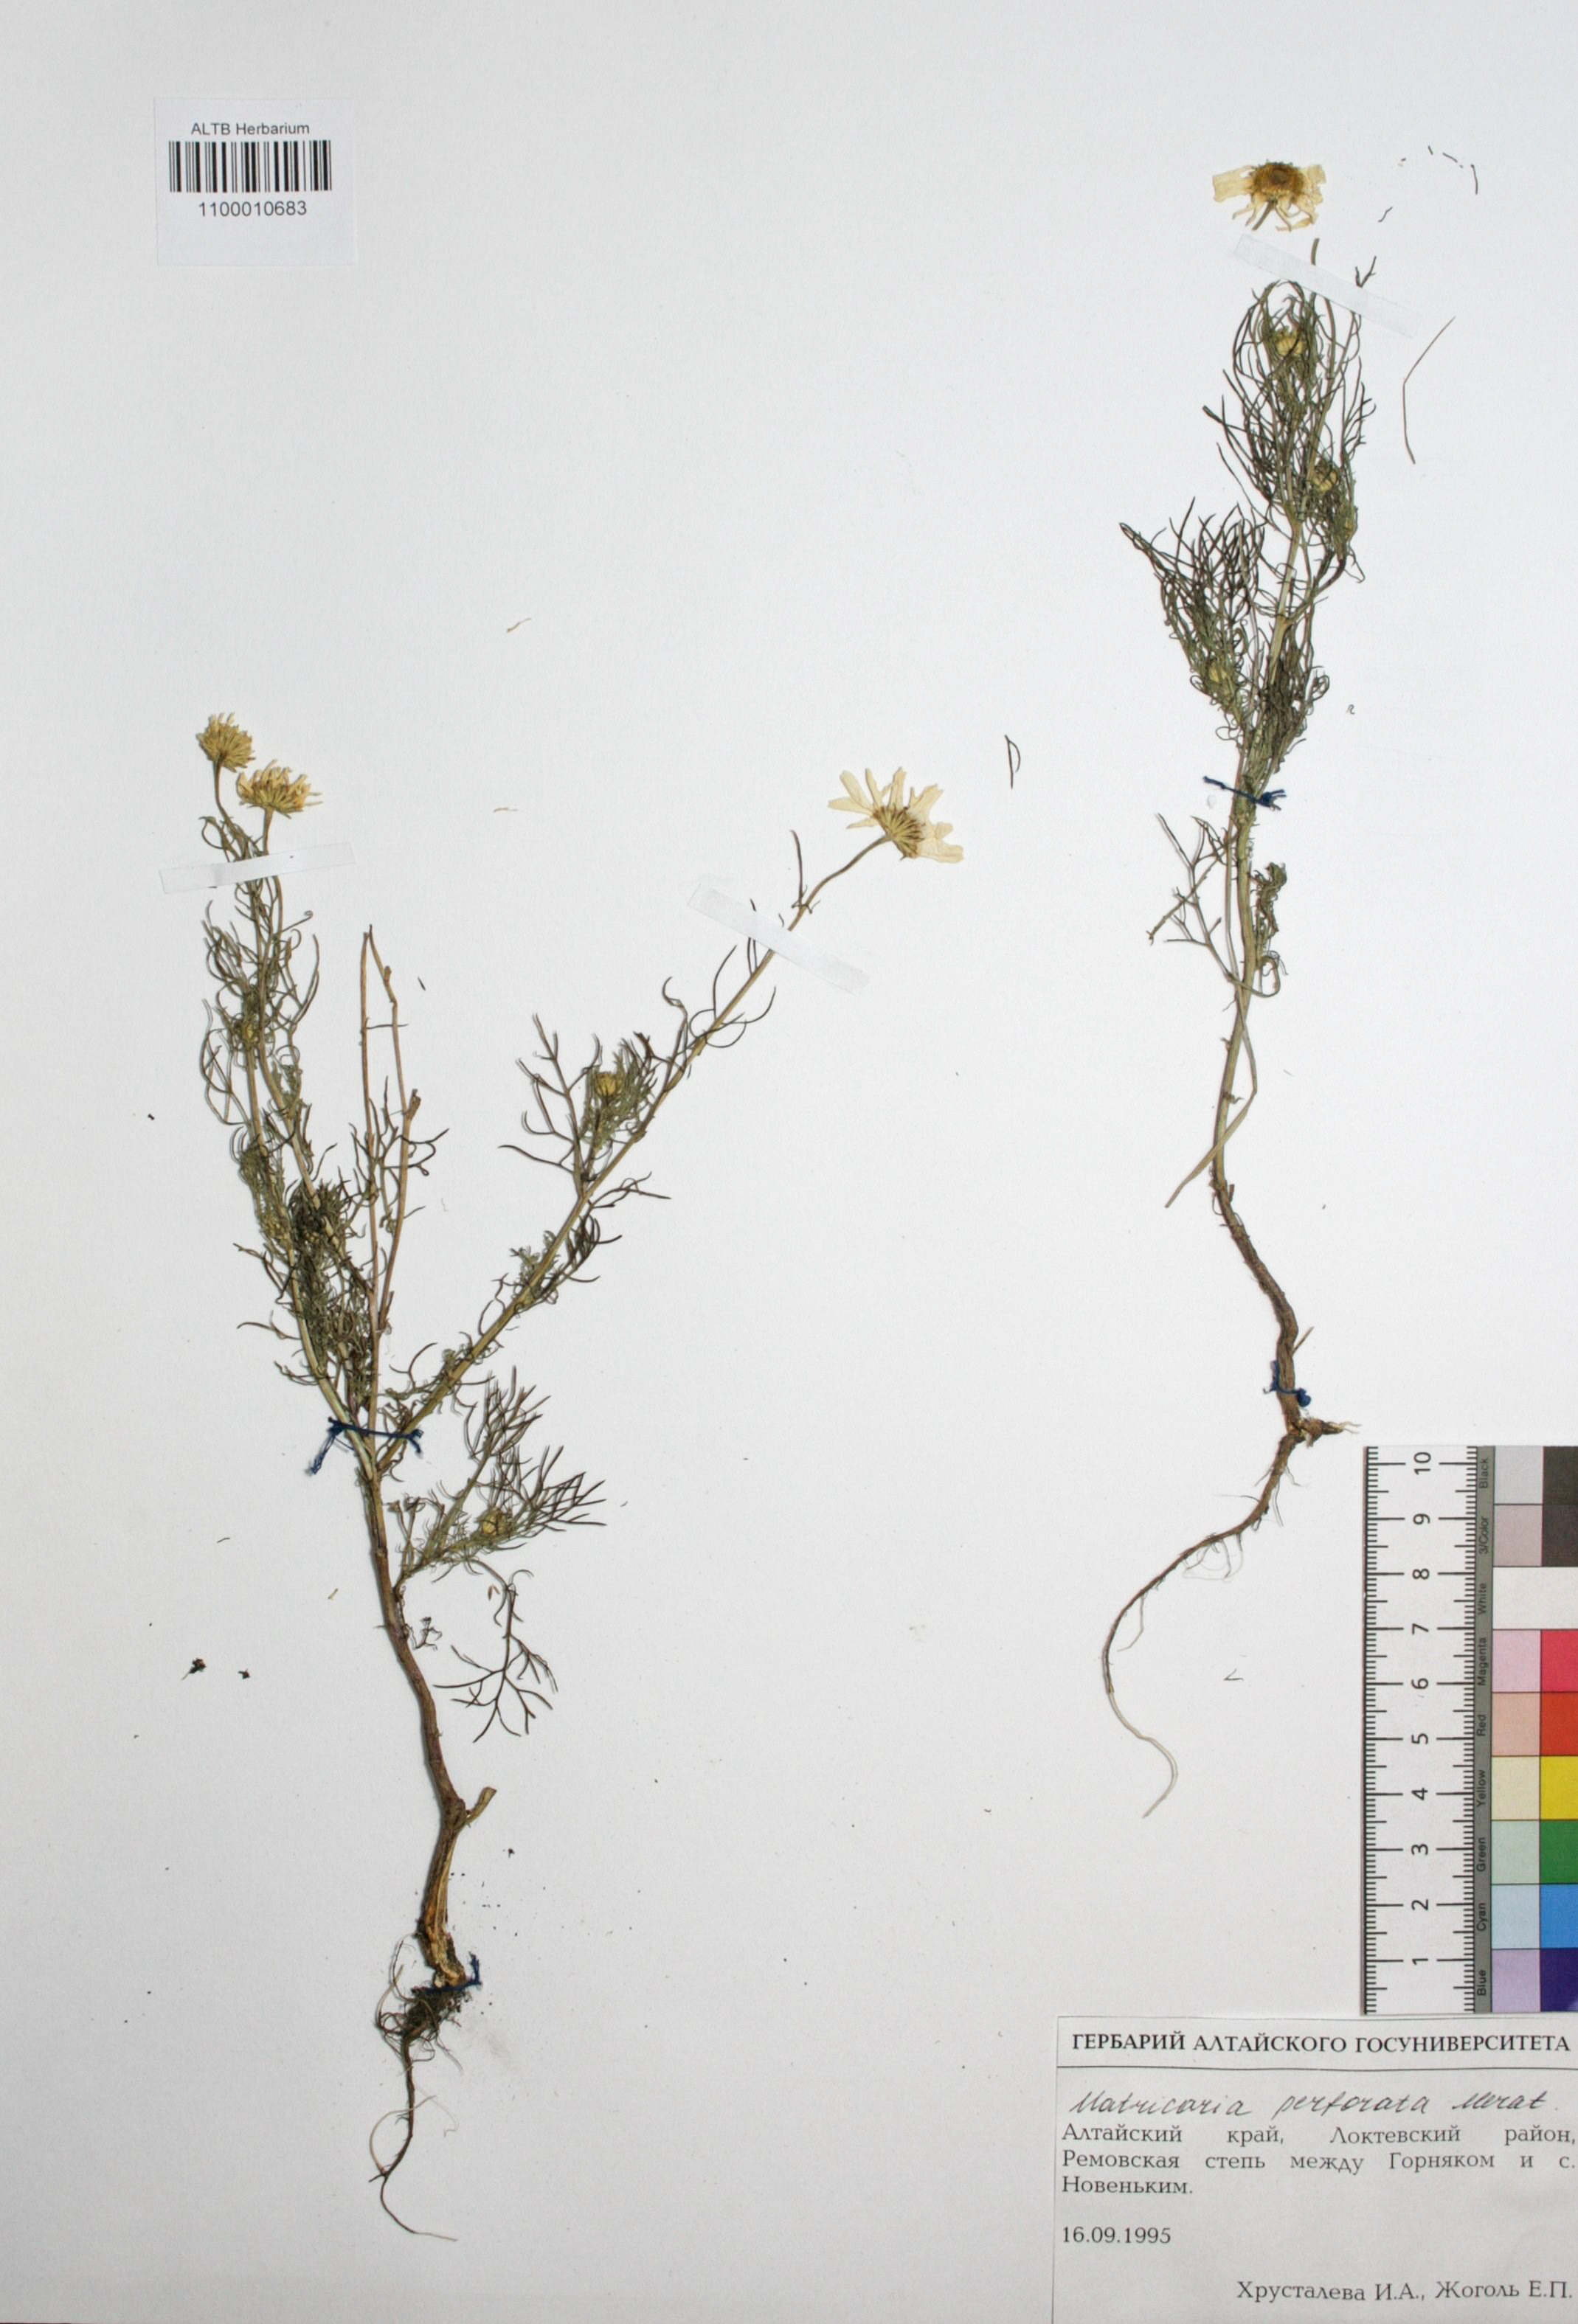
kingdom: Plantae
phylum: Tracheophyta
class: Magnoliopsida
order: Asterales
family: Asteraceae
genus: Tripleurospermum
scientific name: Tripleurospermum inodorum
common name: Scentless mayweed
